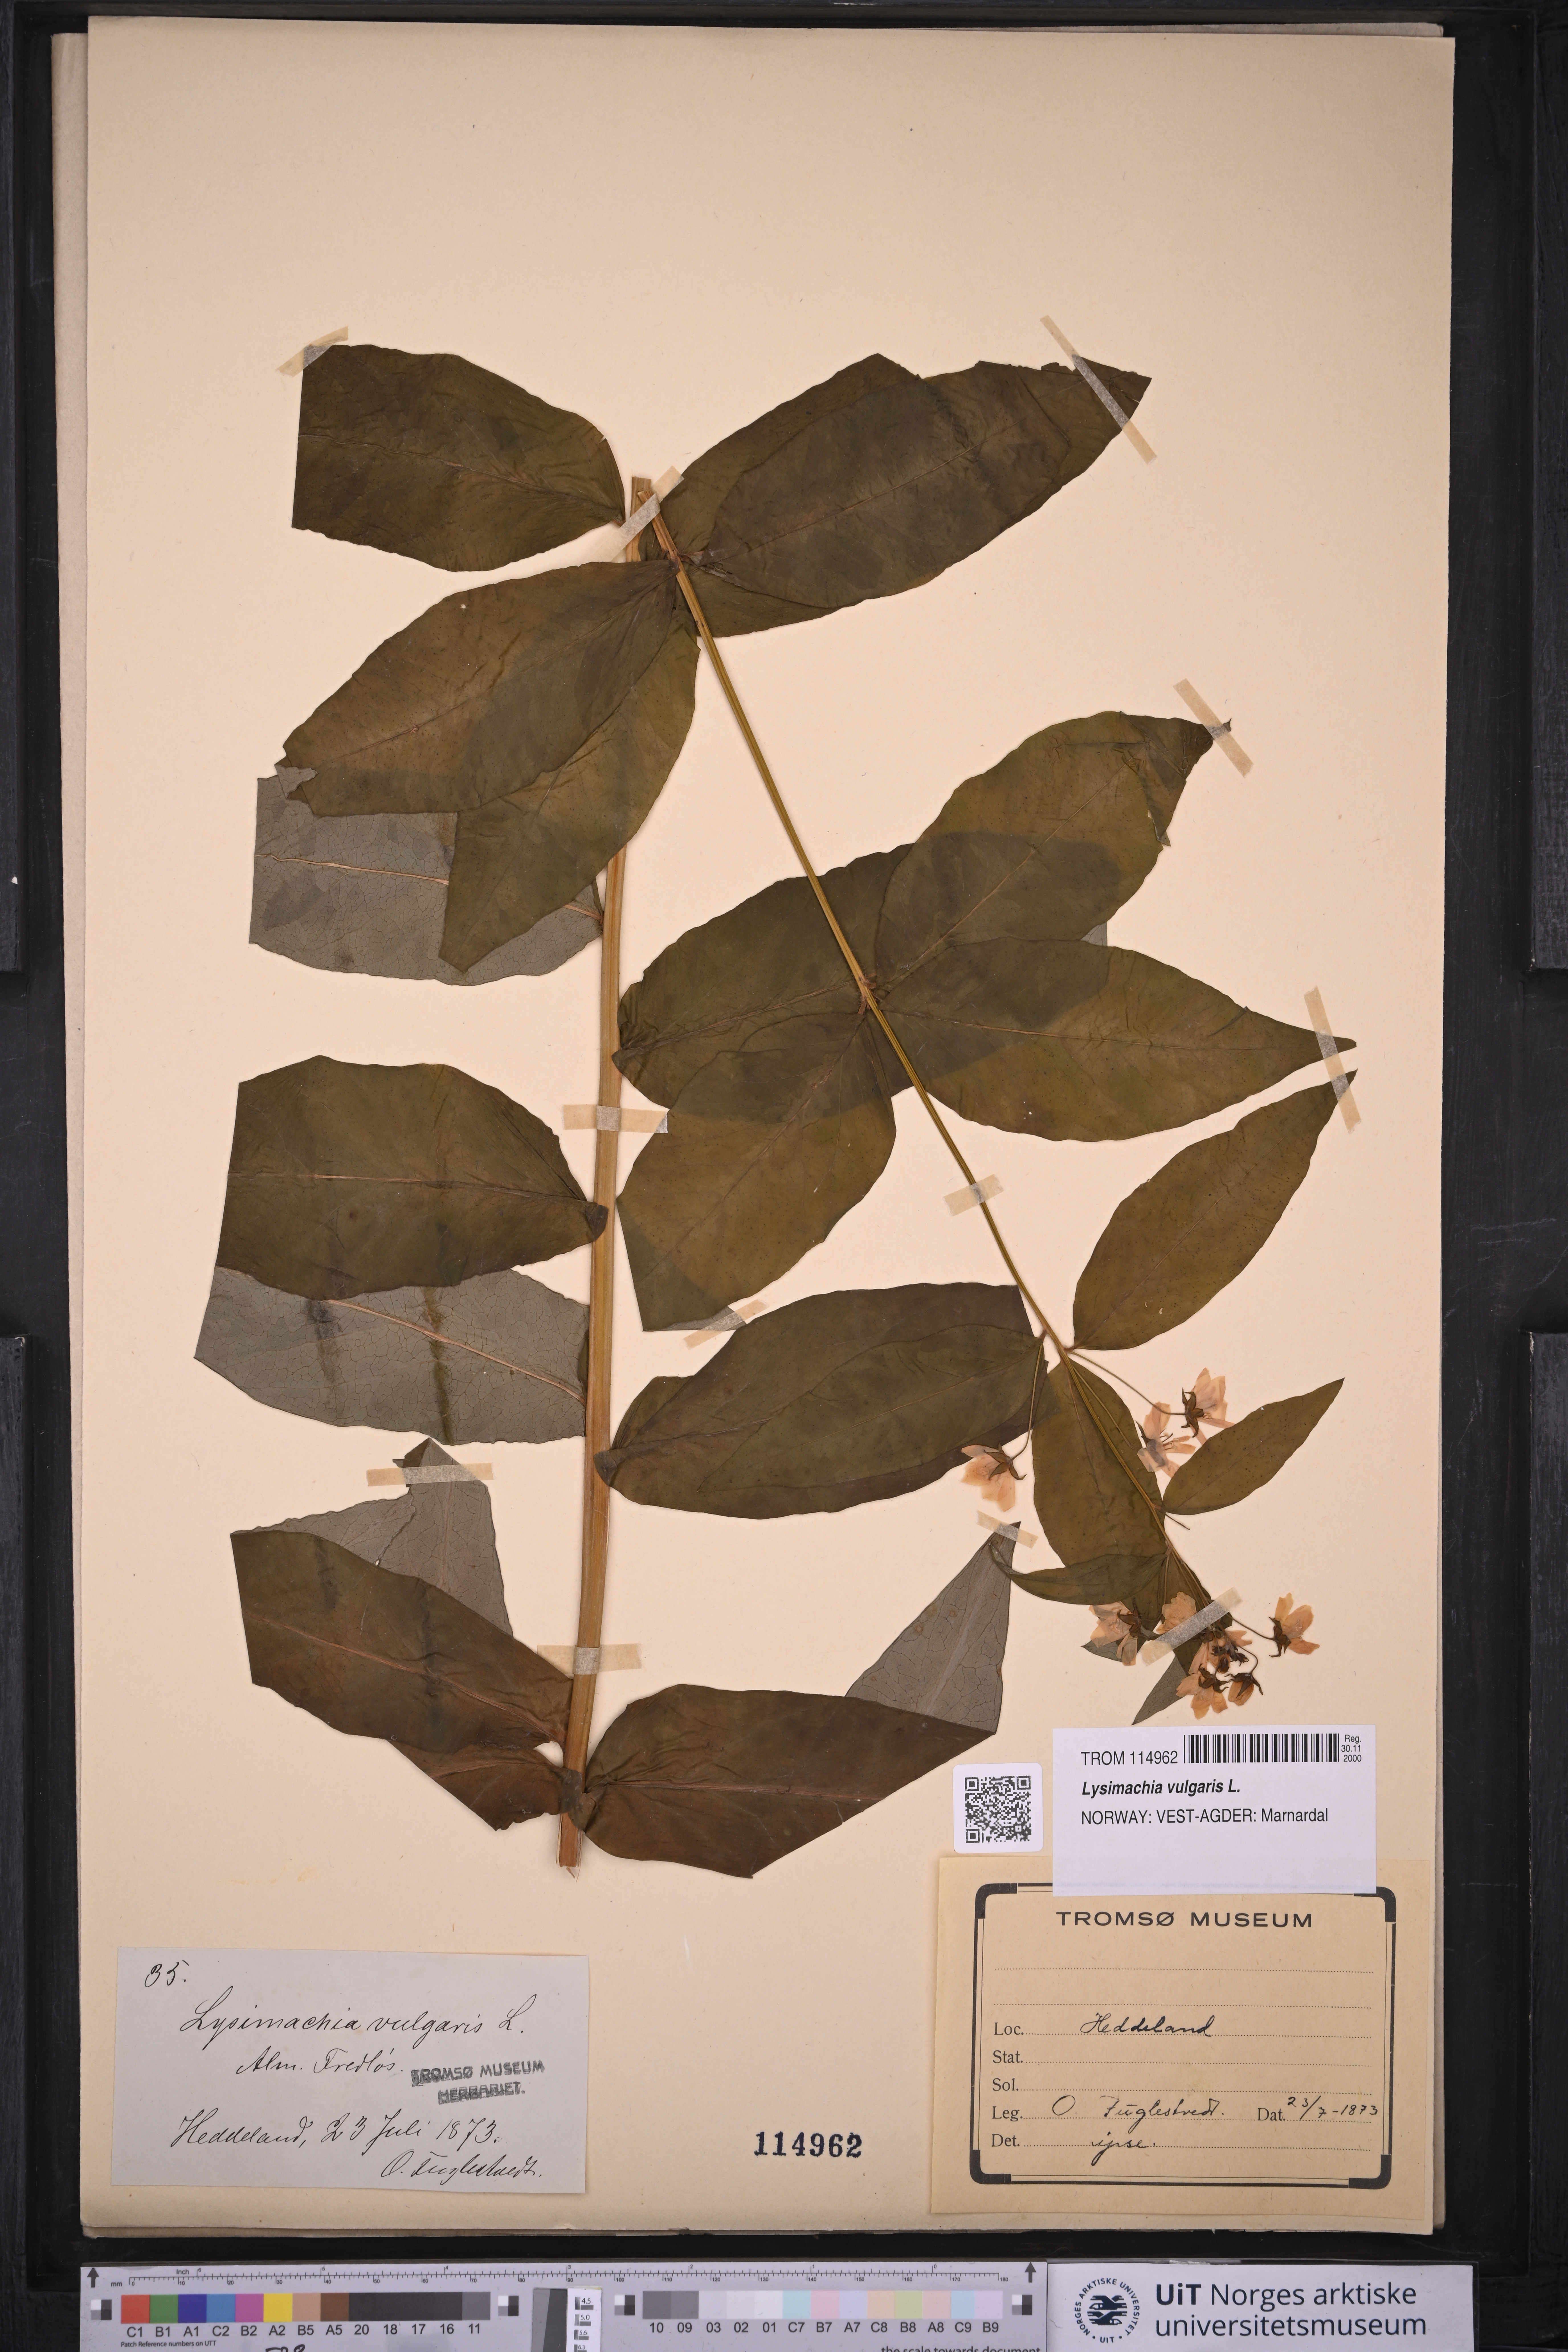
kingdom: Plantae
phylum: Tracheophyta
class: Magnoliopsida
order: Ericales
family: Primulaceae
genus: Lysimachia
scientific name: Lysimachia vulgaris
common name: Yellow loosestrife
